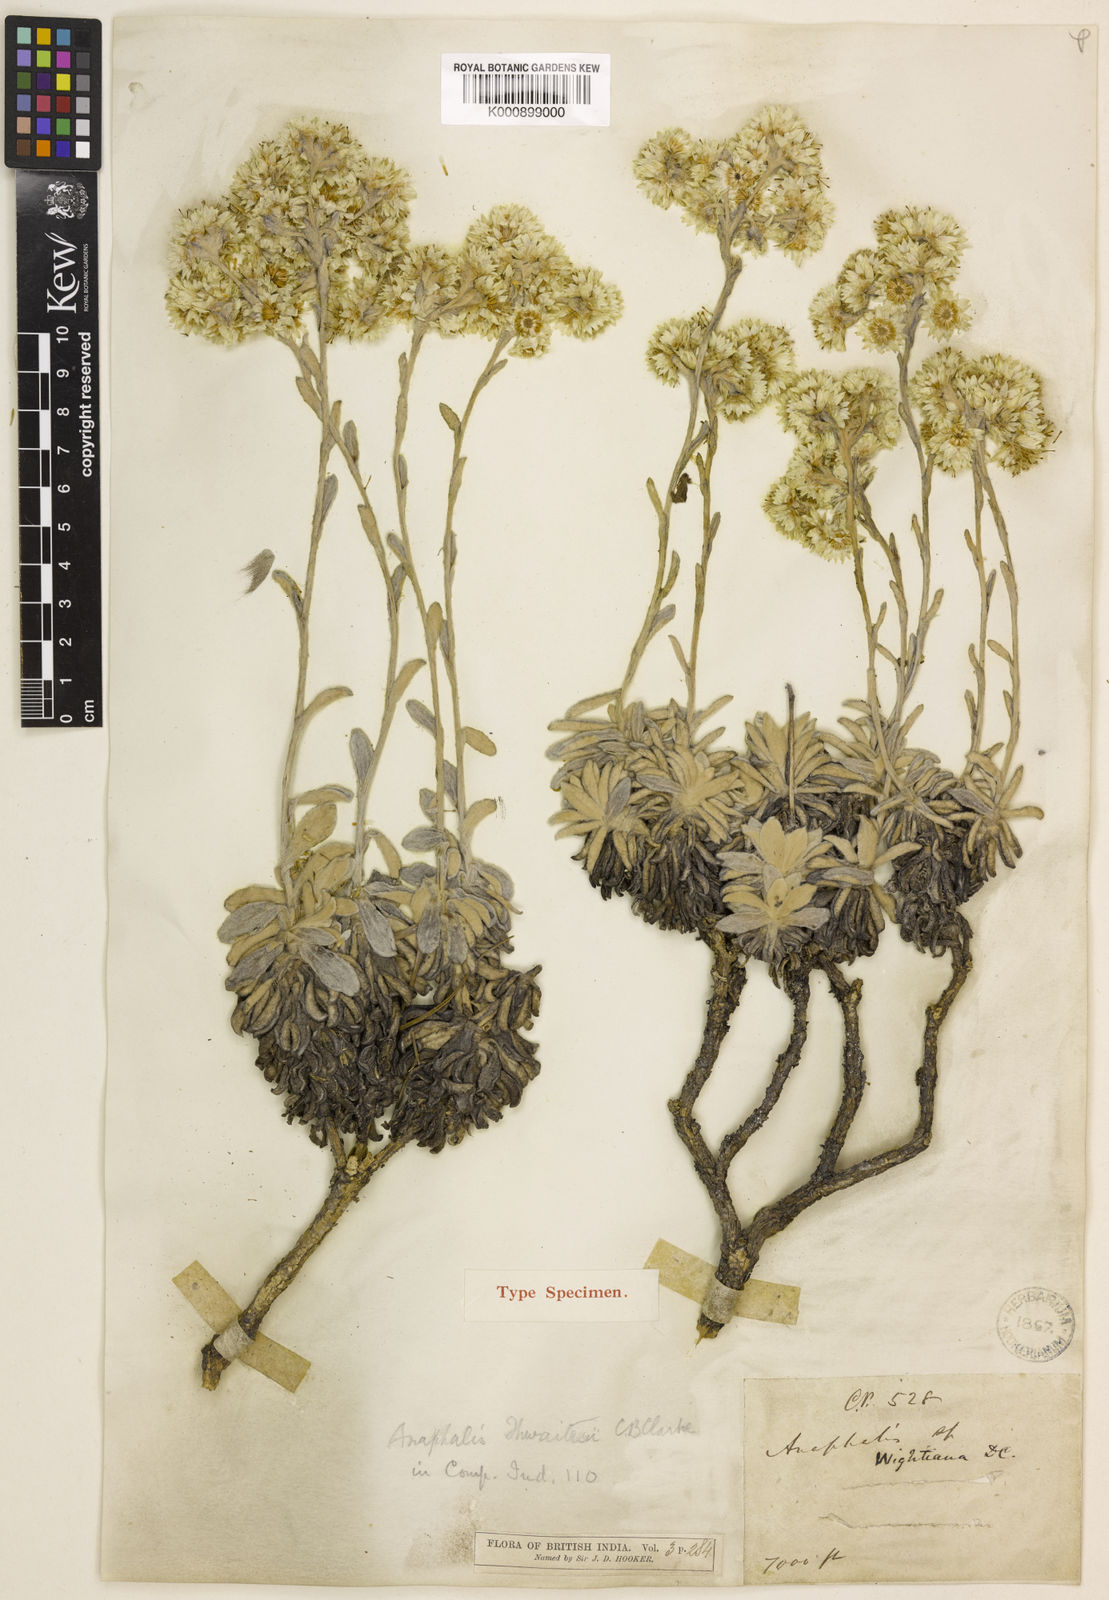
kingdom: Plantae
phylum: Tracheophyta
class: Magnoliopsida
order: Asterales
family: Asteraceae
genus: Anaphalis
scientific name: Anaphalis thwaitesii
